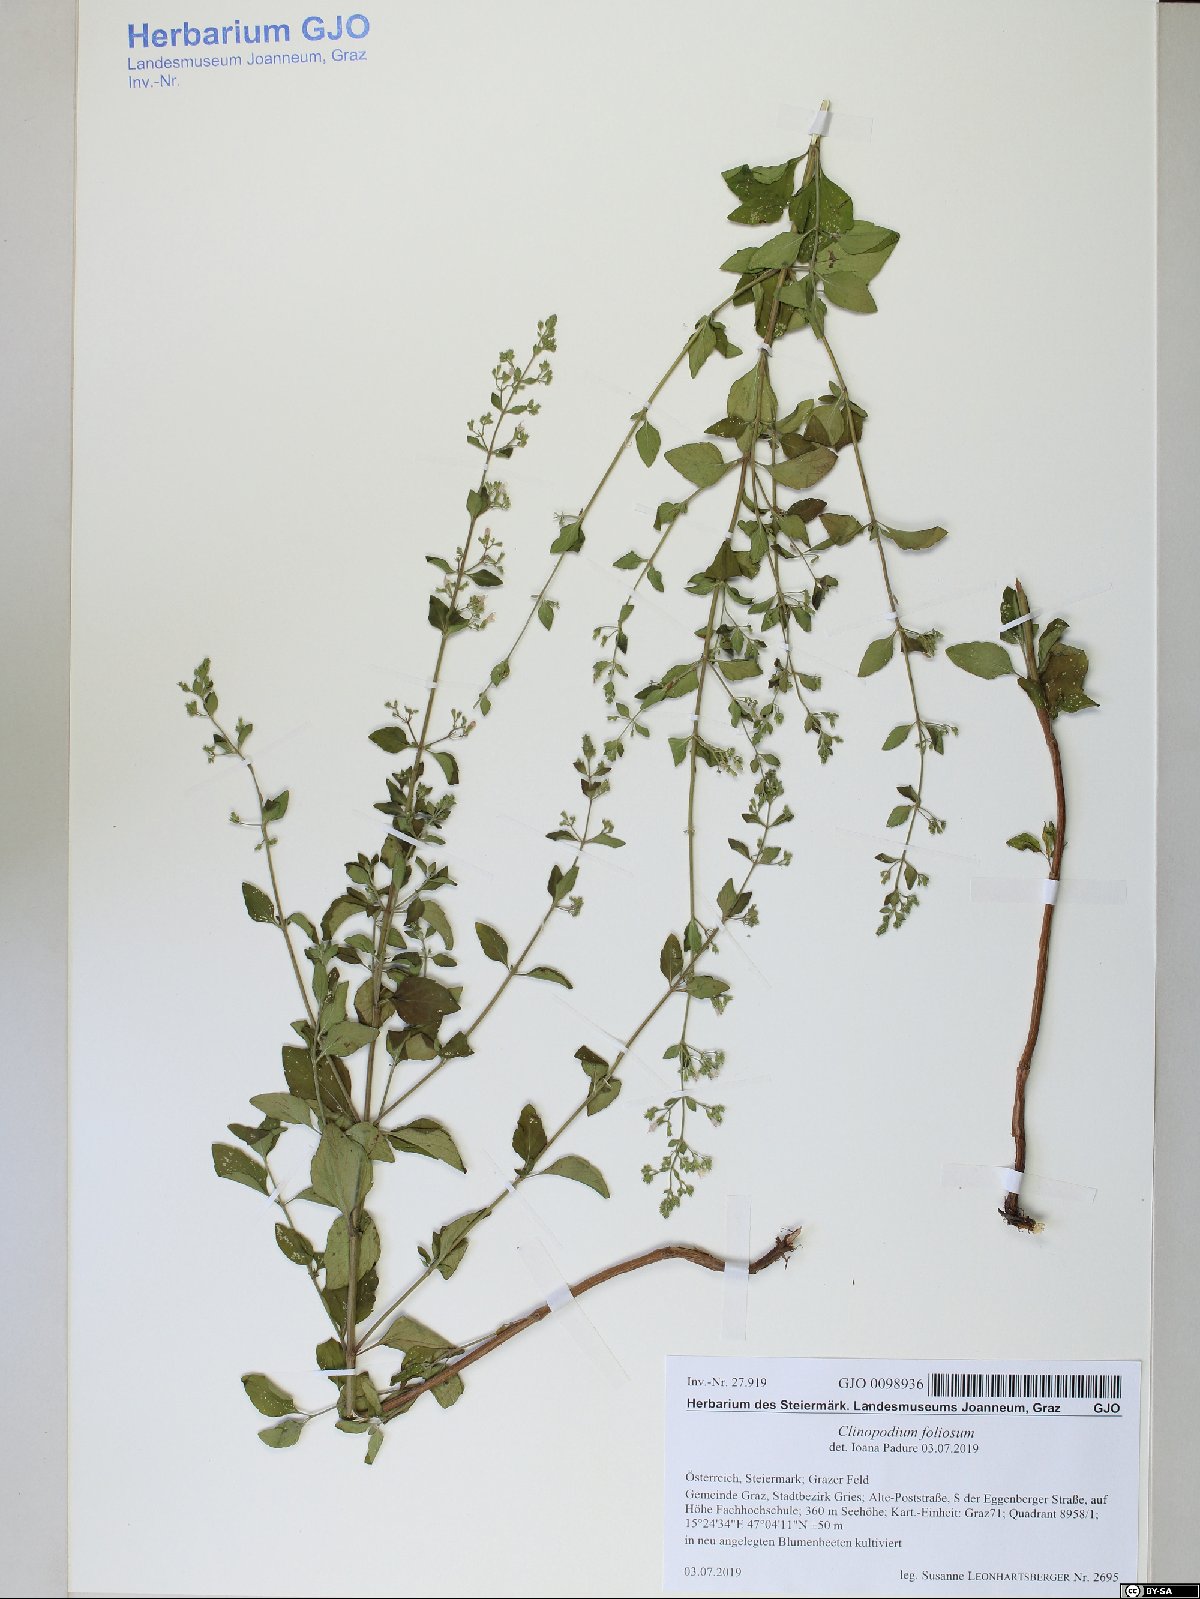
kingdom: Plantae
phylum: Tracheophyta
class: Magnoliopsida
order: Lamiales
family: Lamiaceae
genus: Clinopodium
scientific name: Clinopodium foliolosum
